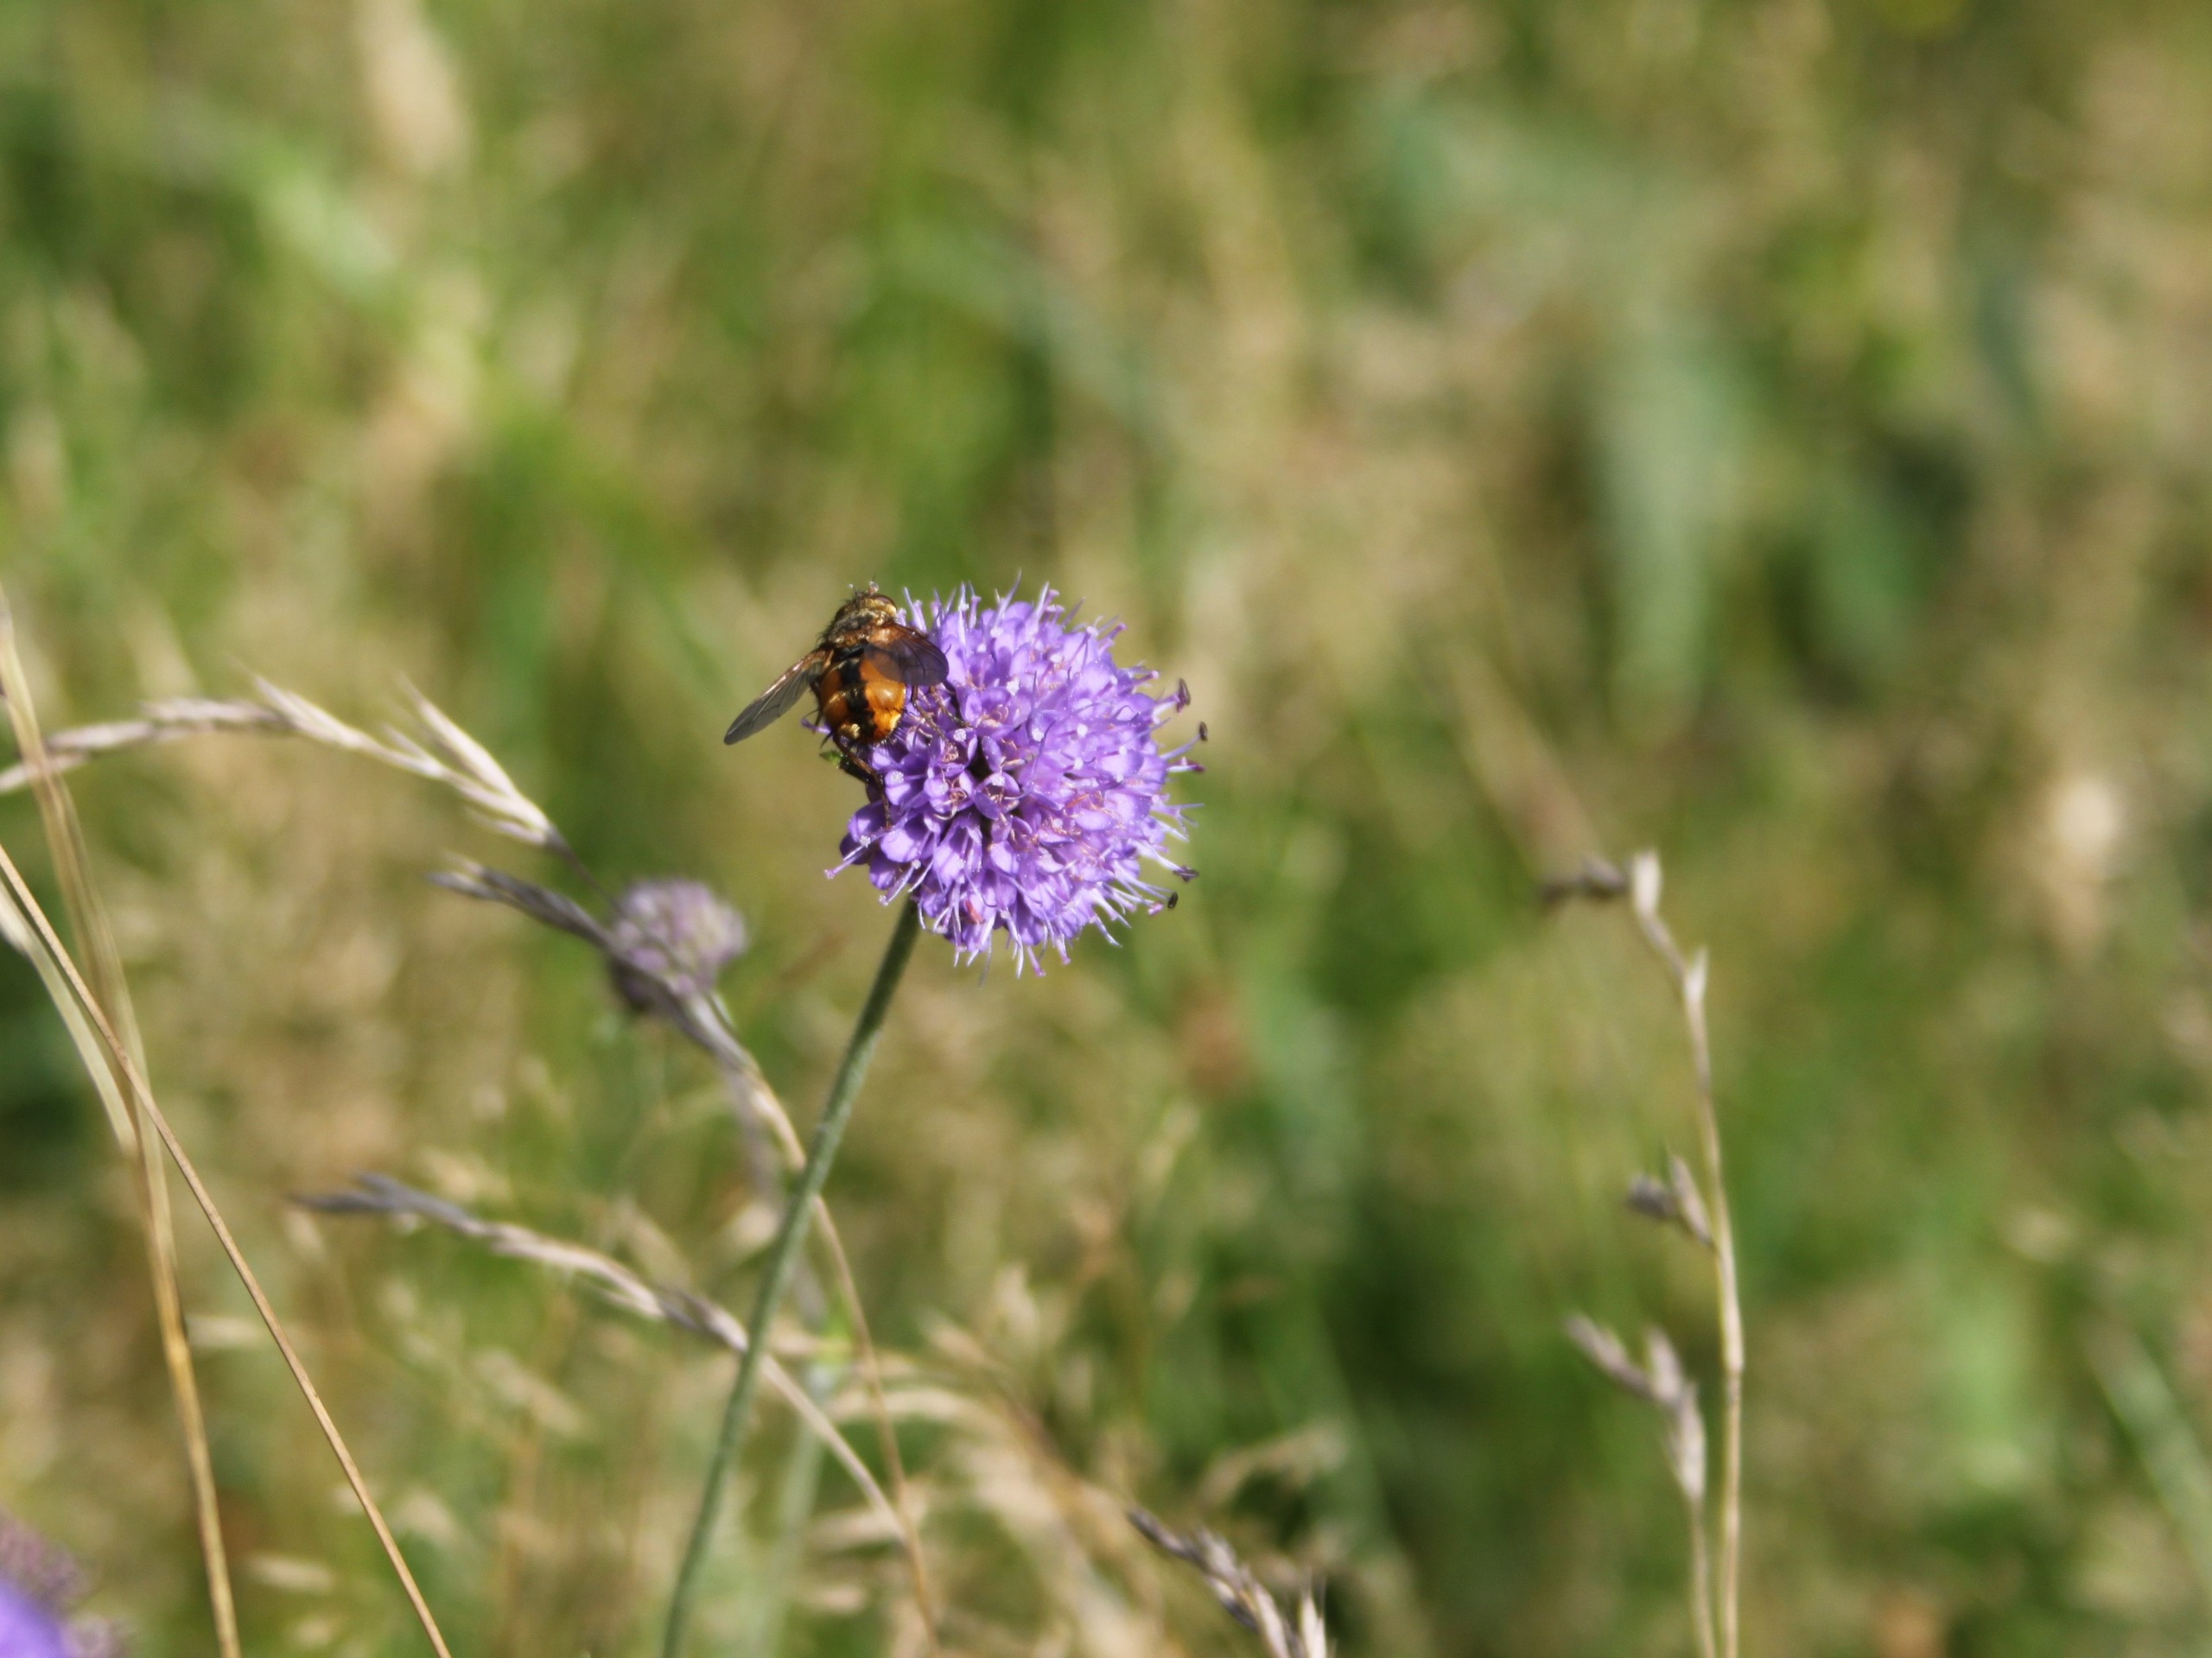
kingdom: Animalia
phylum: Arthropoda
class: Insecta
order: Diptera
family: Tachinidae
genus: Tachina
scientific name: Tachina fera
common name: Mellemfluen oskar
